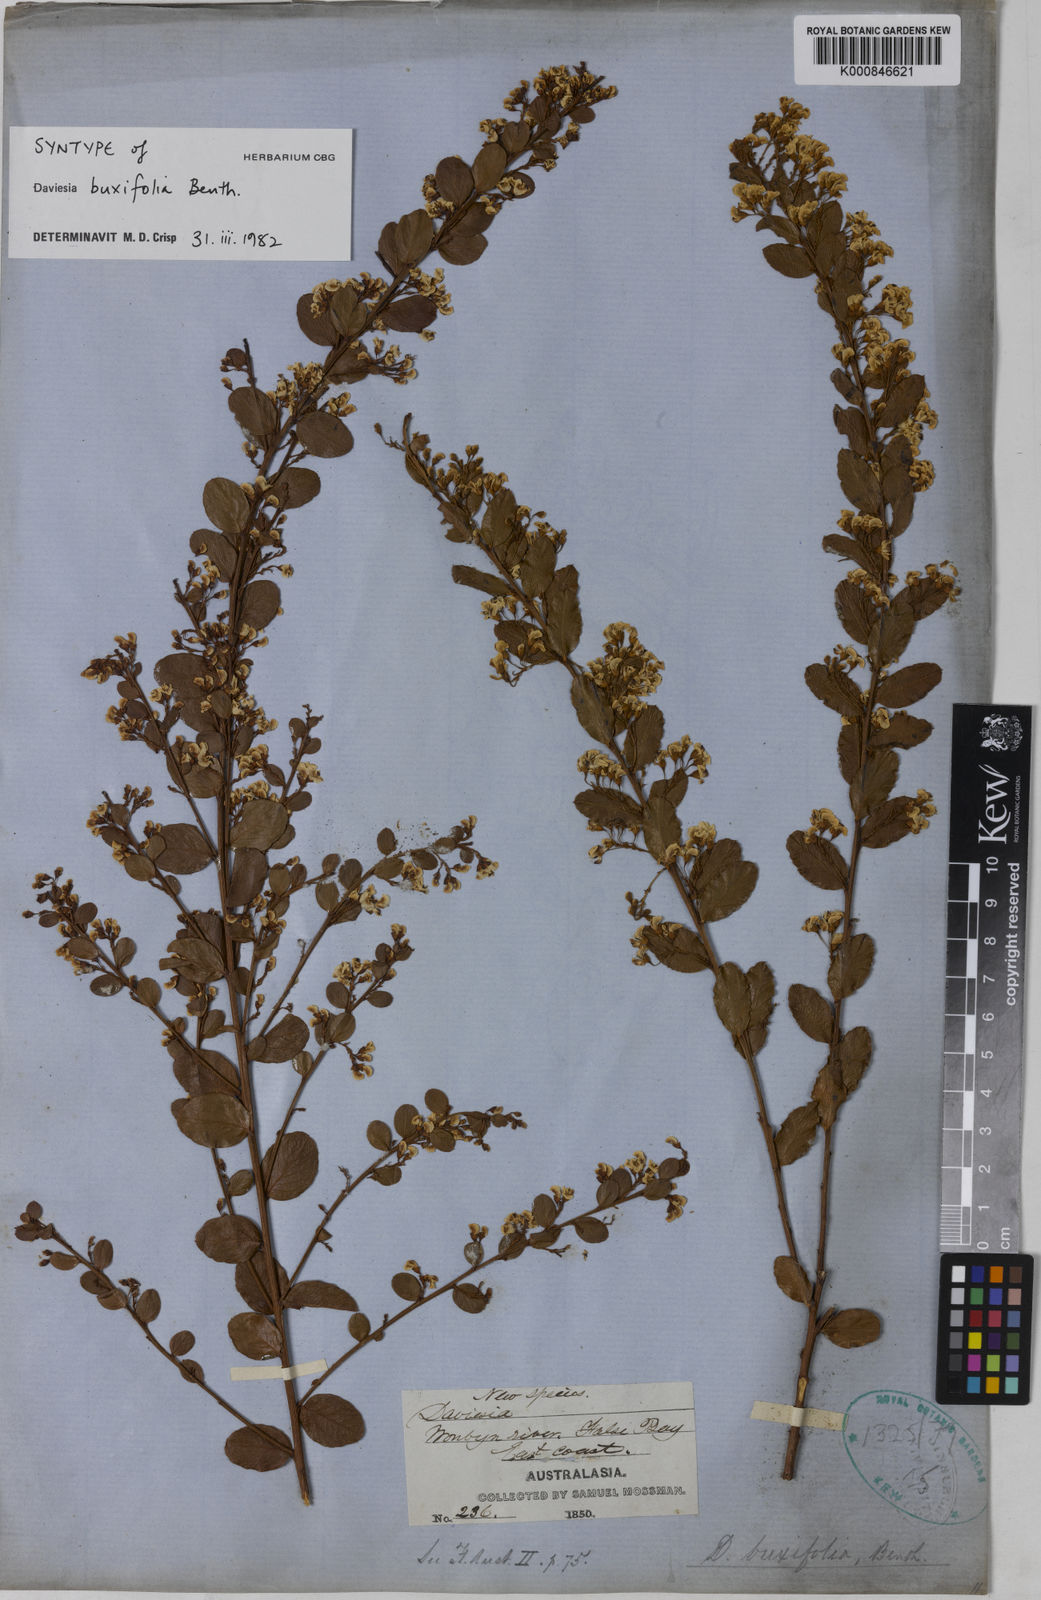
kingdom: Plantae
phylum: Tracheophyta
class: Magnoliopsida
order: Fabales
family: Fabaceae
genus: Daviesia
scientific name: Daviesia mimosoides
